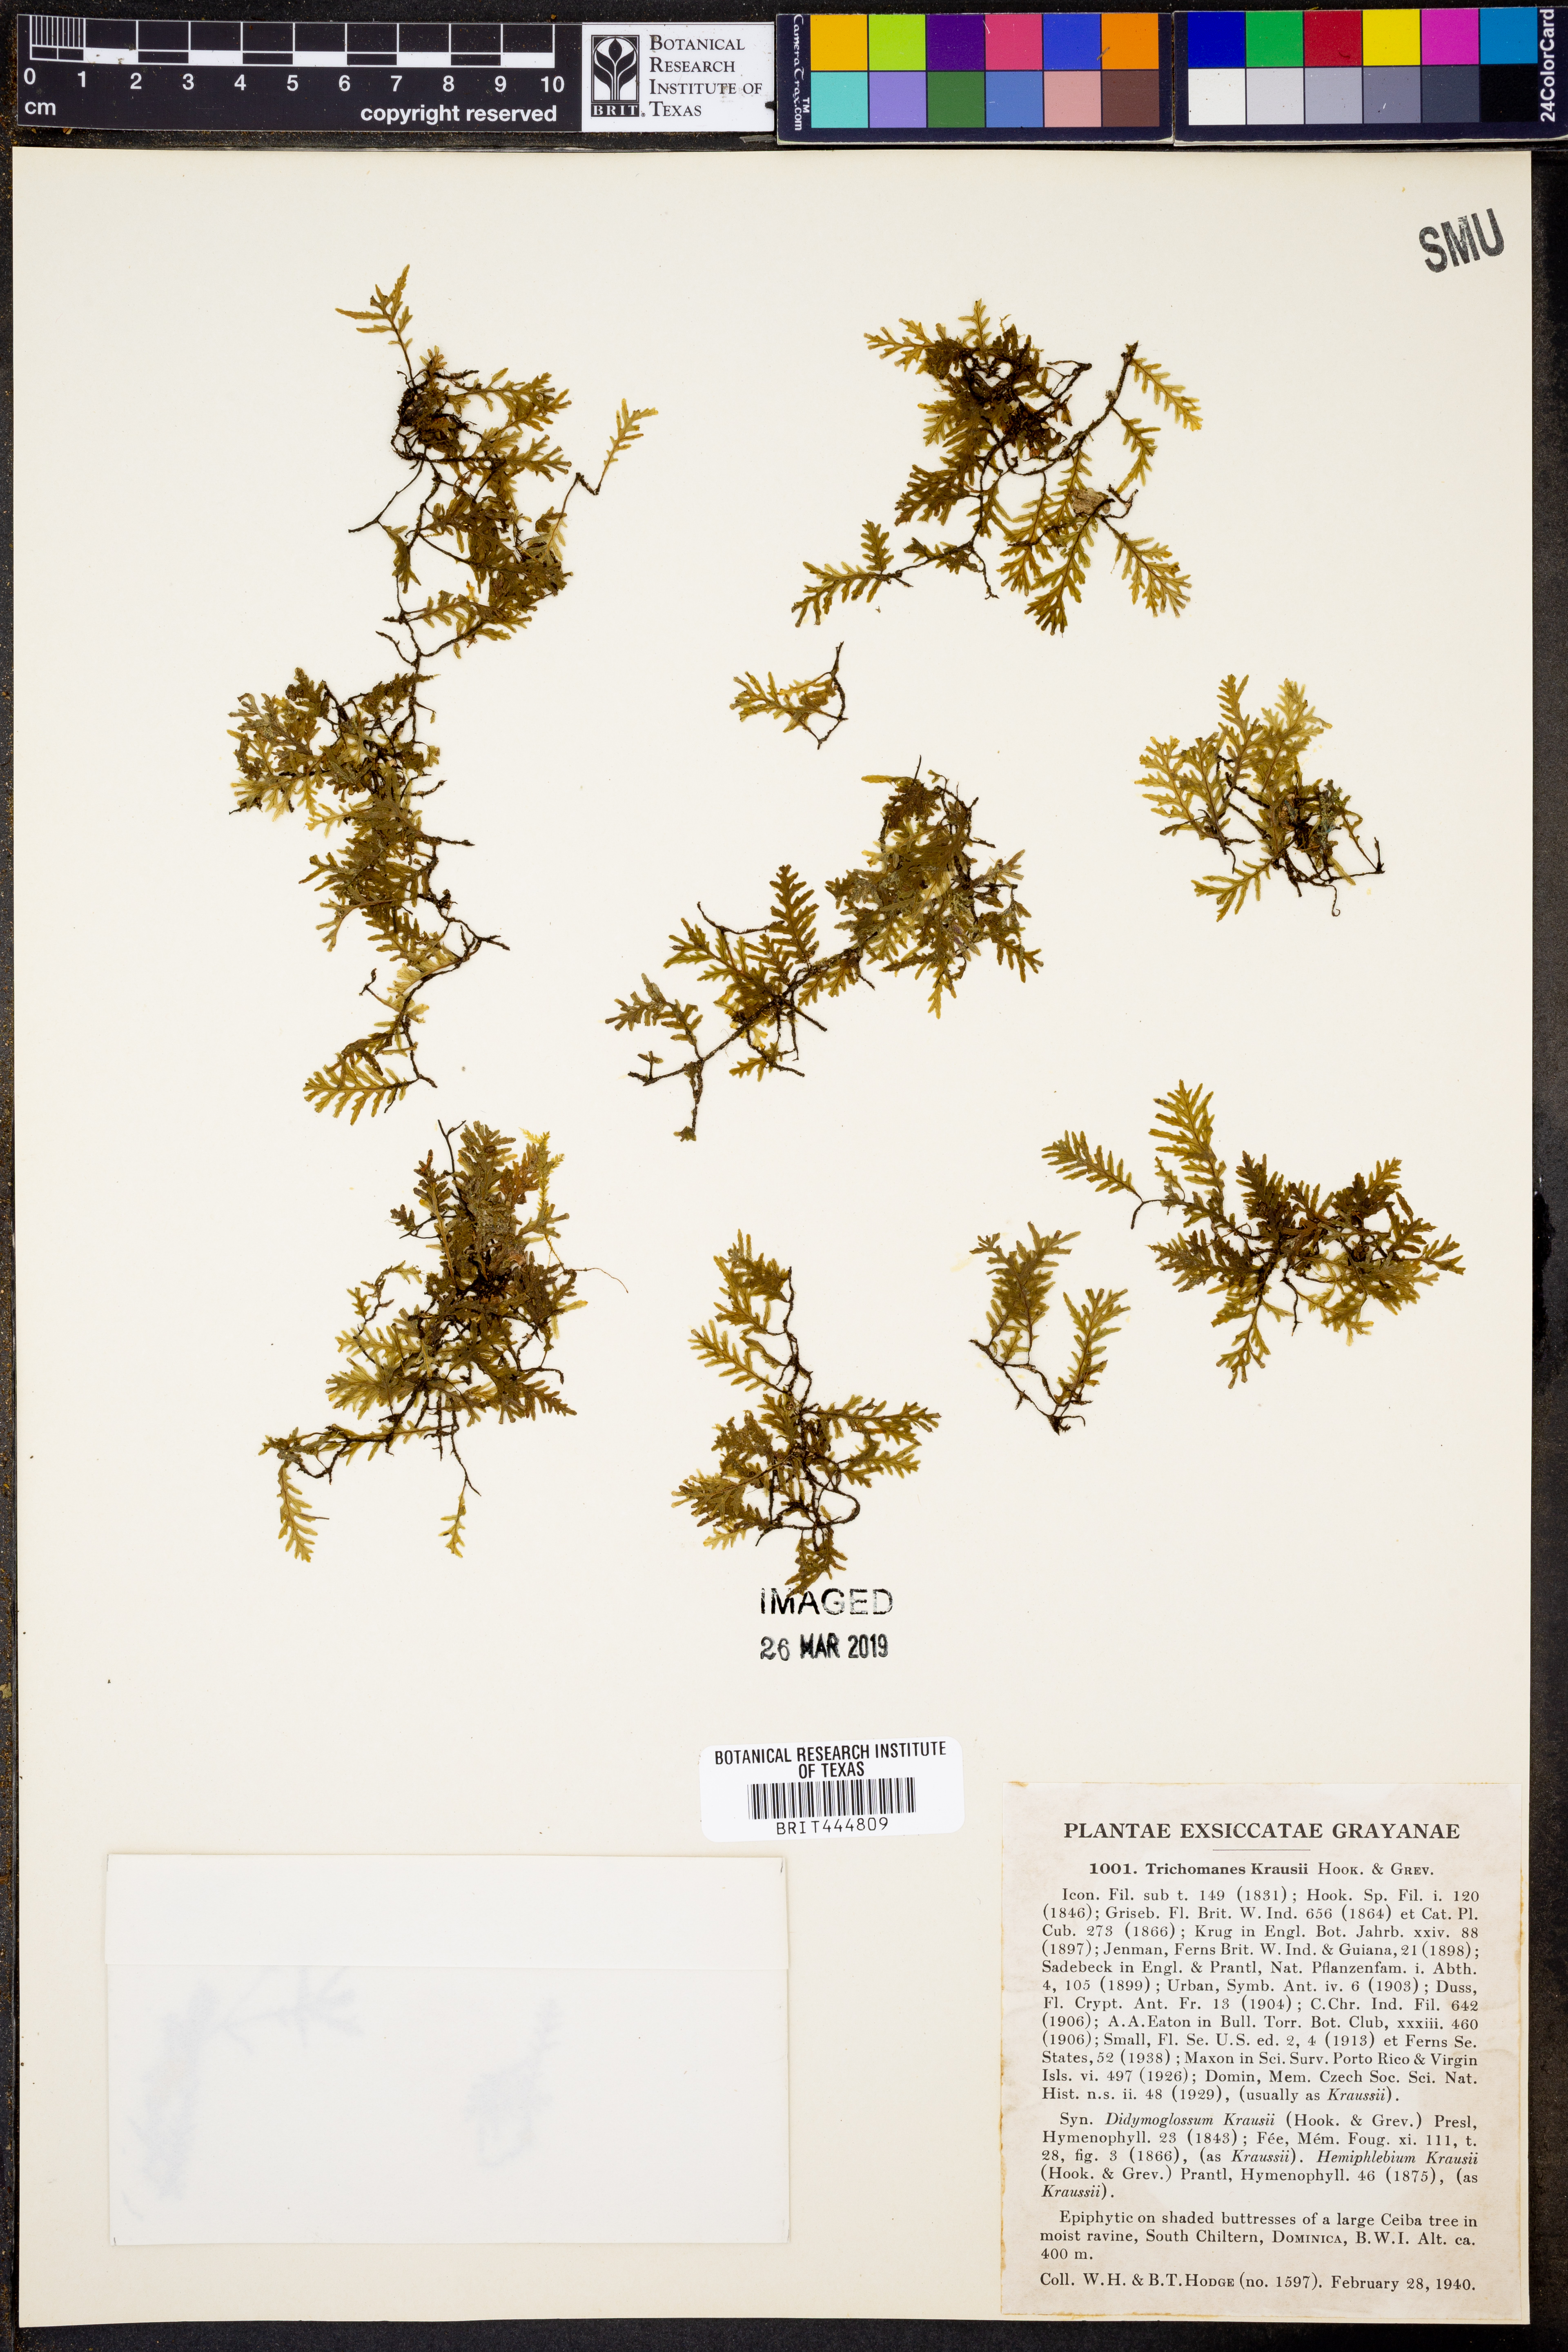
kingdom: Plantae
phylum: Tracheophyta
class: Polypodiopsida
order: Hymenophyllales
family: Hymenophyllaceae
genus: Didymoglossum
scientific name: Didymoglossum kraussii
